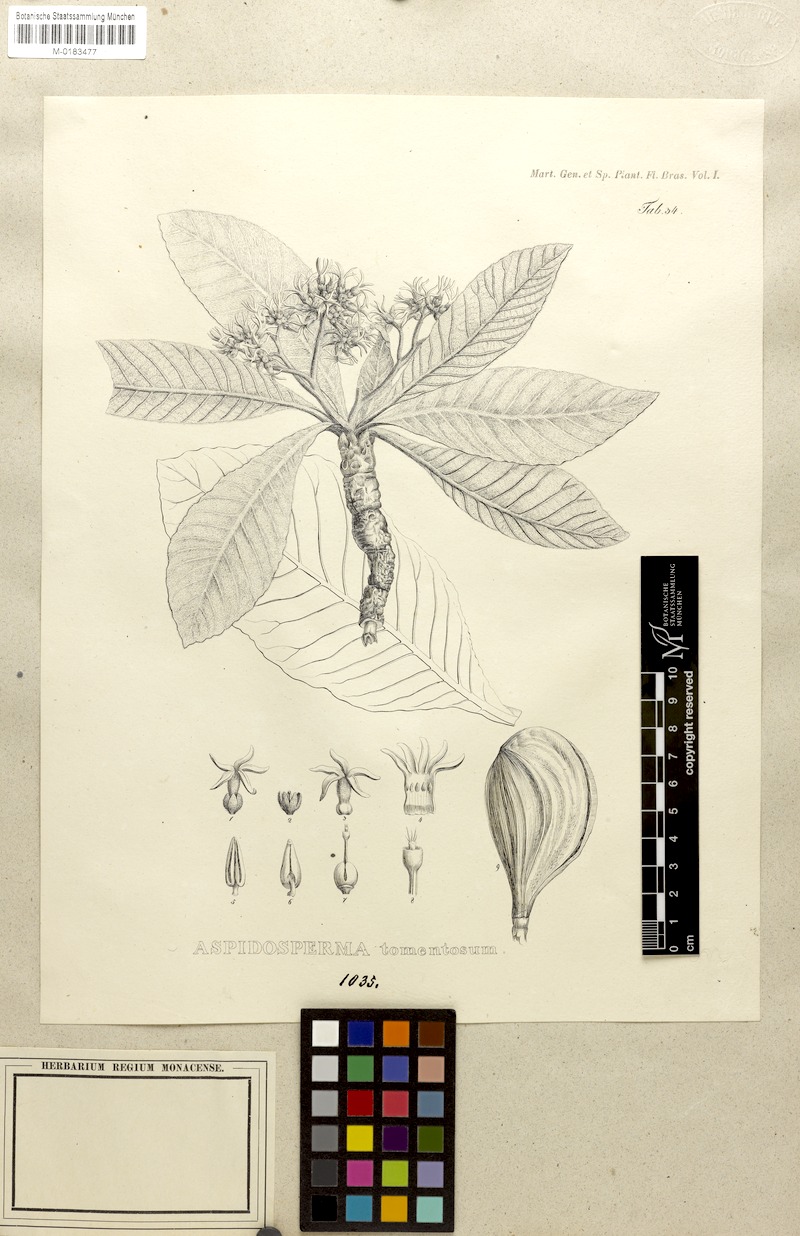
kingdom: Plantae
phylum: Tracheophyta
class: Magnoliopsida
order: Gentianales
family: Apocynaceae
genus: Aspidosperma
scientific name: Aspidosperma tomentosum
